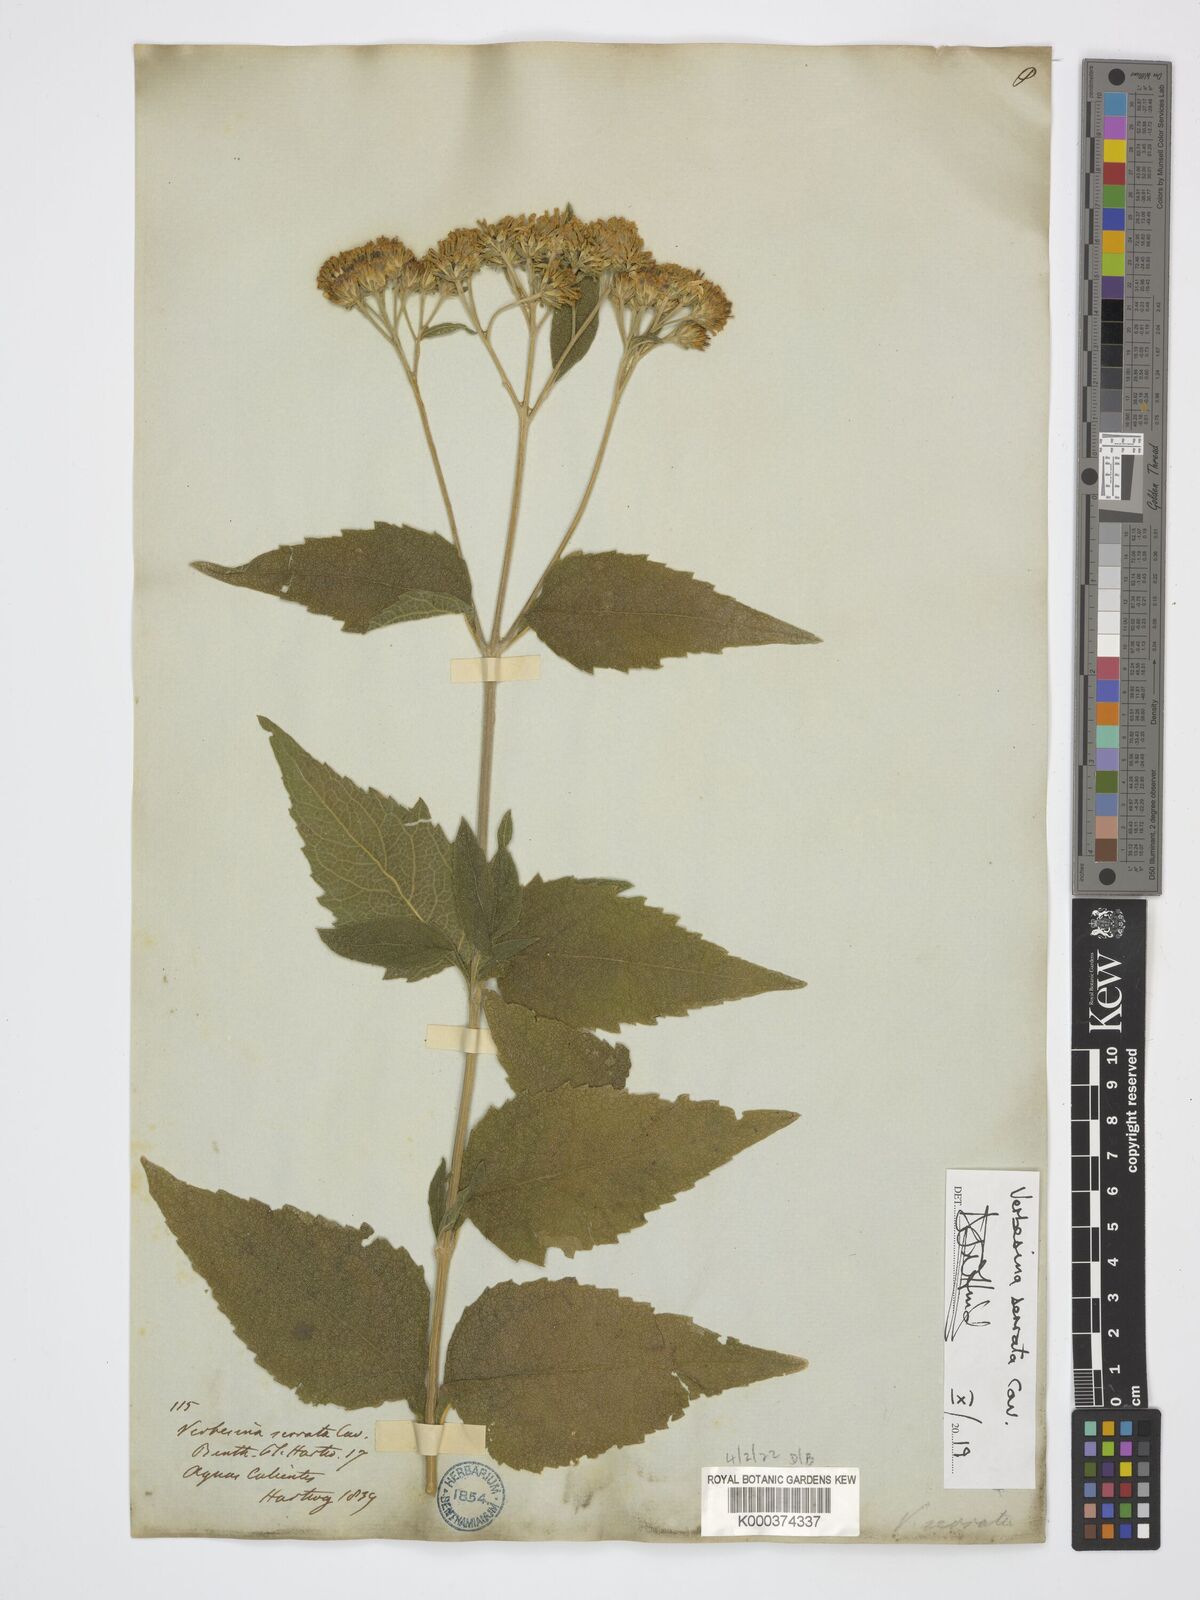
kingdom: Plantae
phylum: Tracheophyta
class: Magnoliopsida
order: Asterales
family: Asteraceae
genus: Verbesina
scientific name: Verbesina serrata
